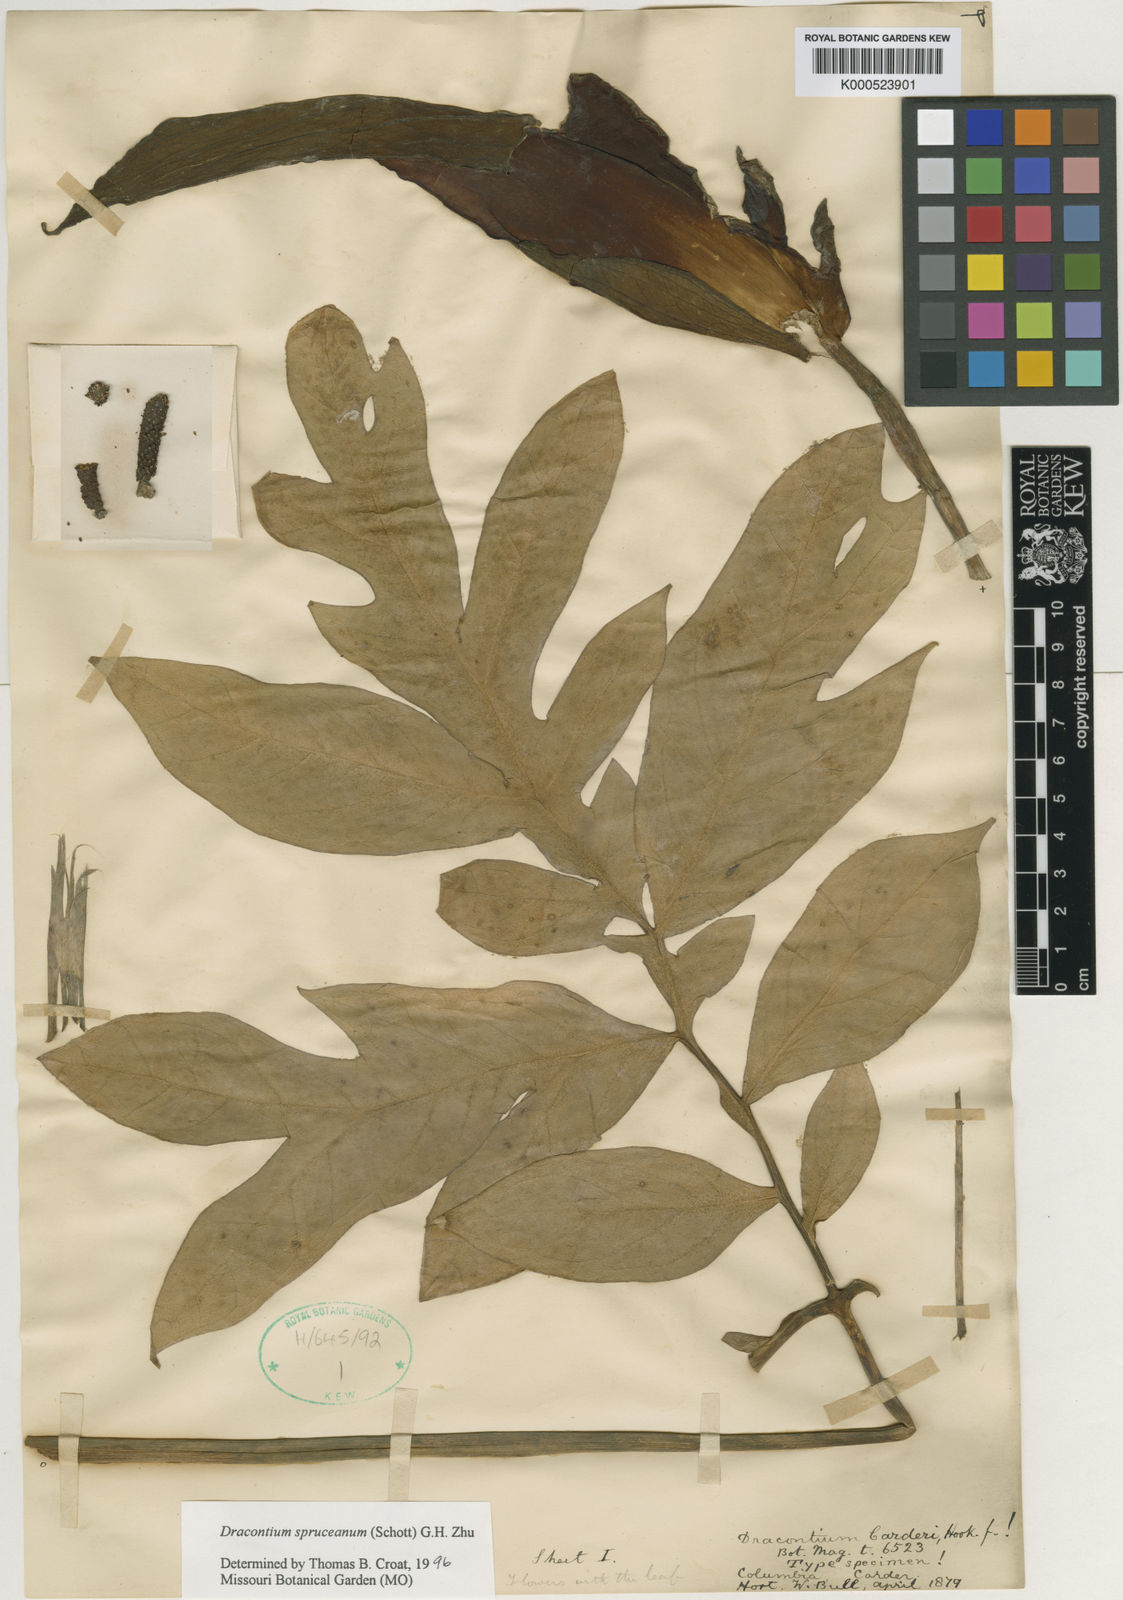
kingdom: Plantae
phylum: Tracheophyta
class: Liliopsida
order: Alismatales
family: Araceae
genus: Dracontium
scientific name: Dracontium spruceanum
